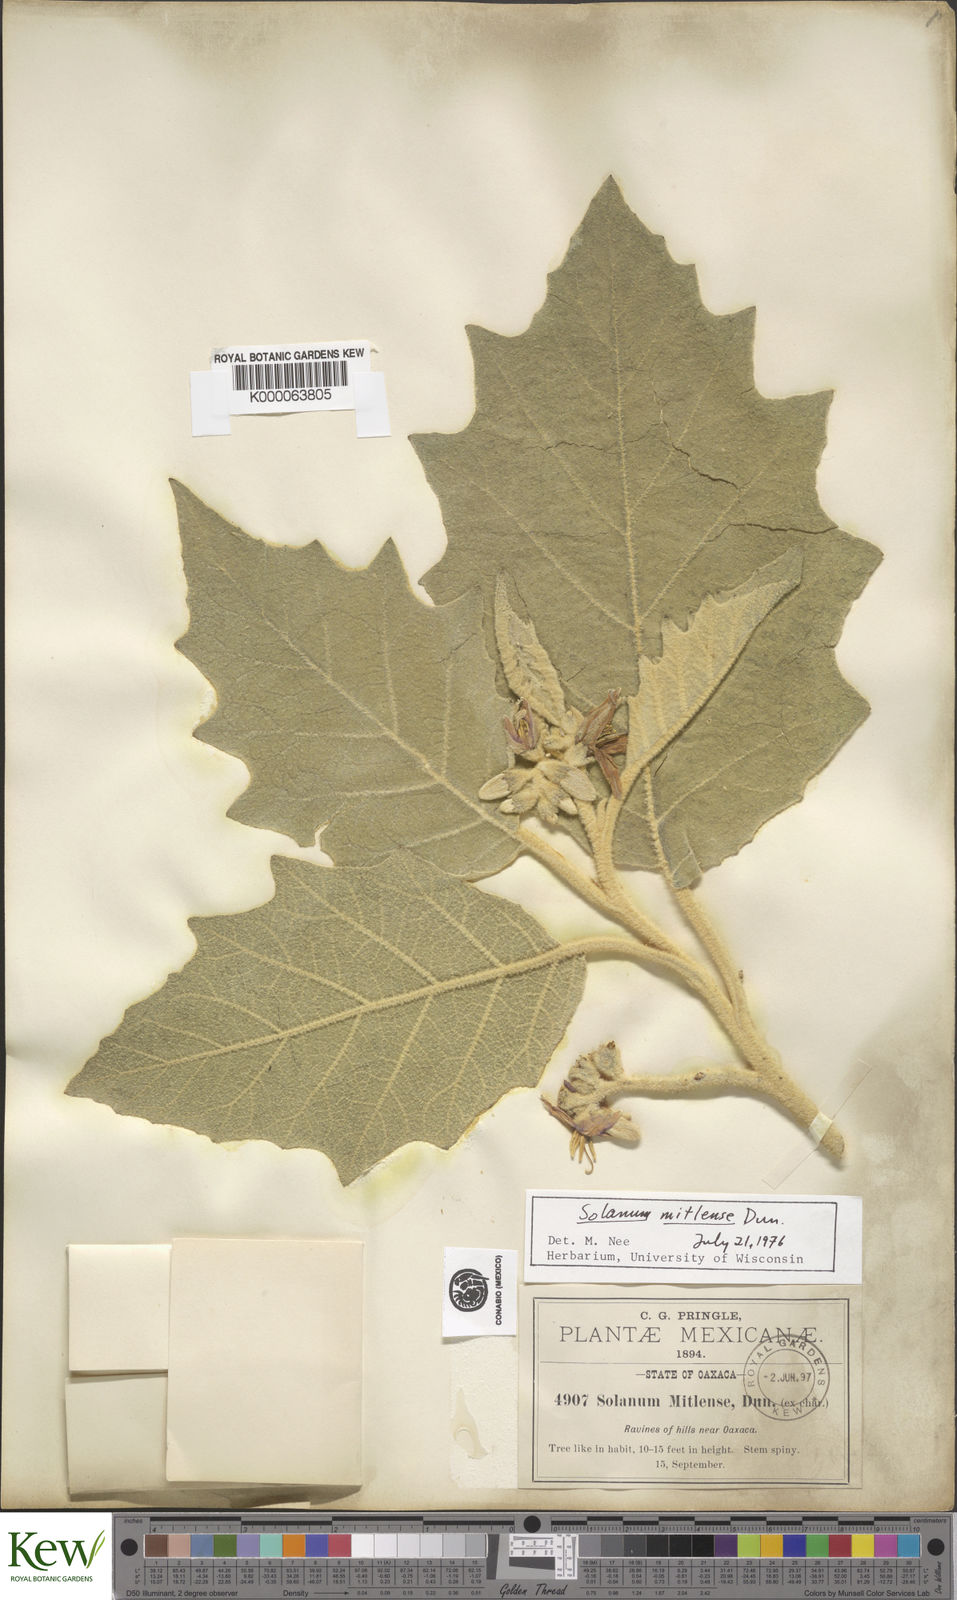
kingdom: Plantae
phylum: Tracheophyta
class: Magnoliopsida
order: Solanales
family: Solanaceae
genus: Solanum
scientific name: Solanum mitlense
